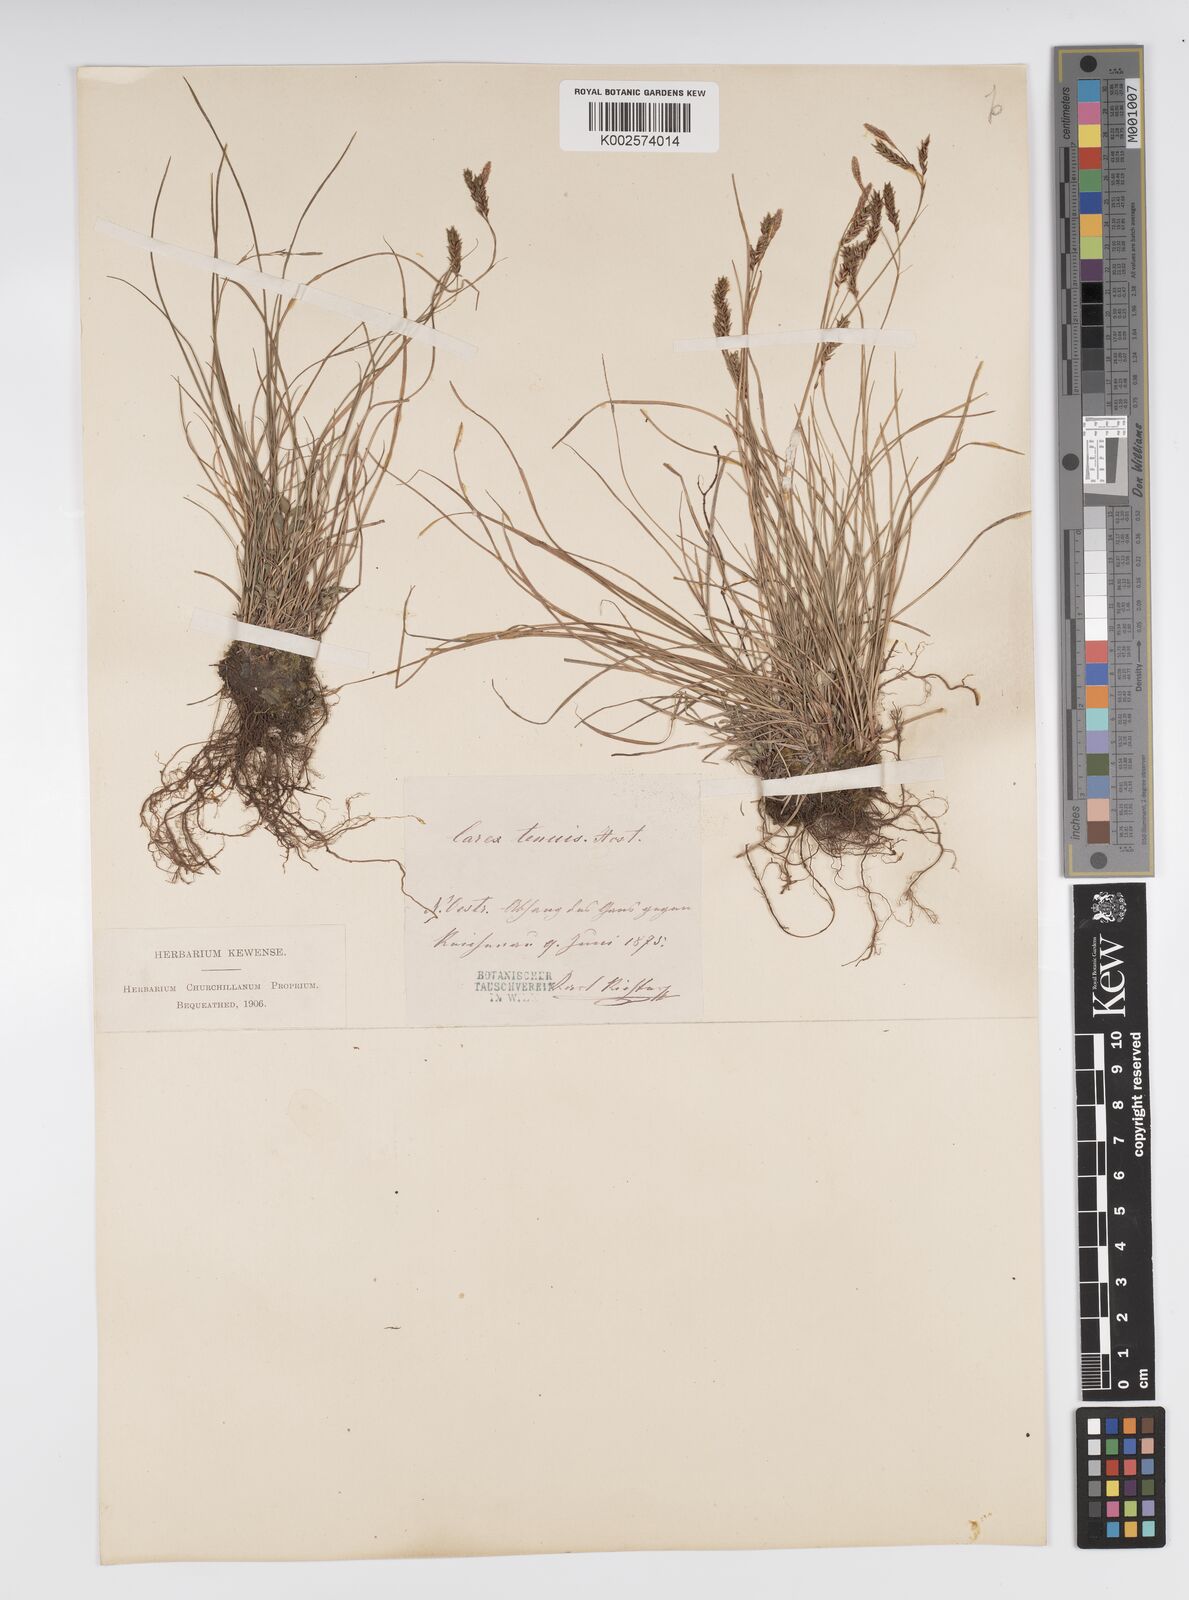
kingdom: Plantae
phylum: Tracheophyta
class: Liliopsida
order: Poales
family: Cyperaceae
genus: Carex
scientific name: Carex brachystachys
